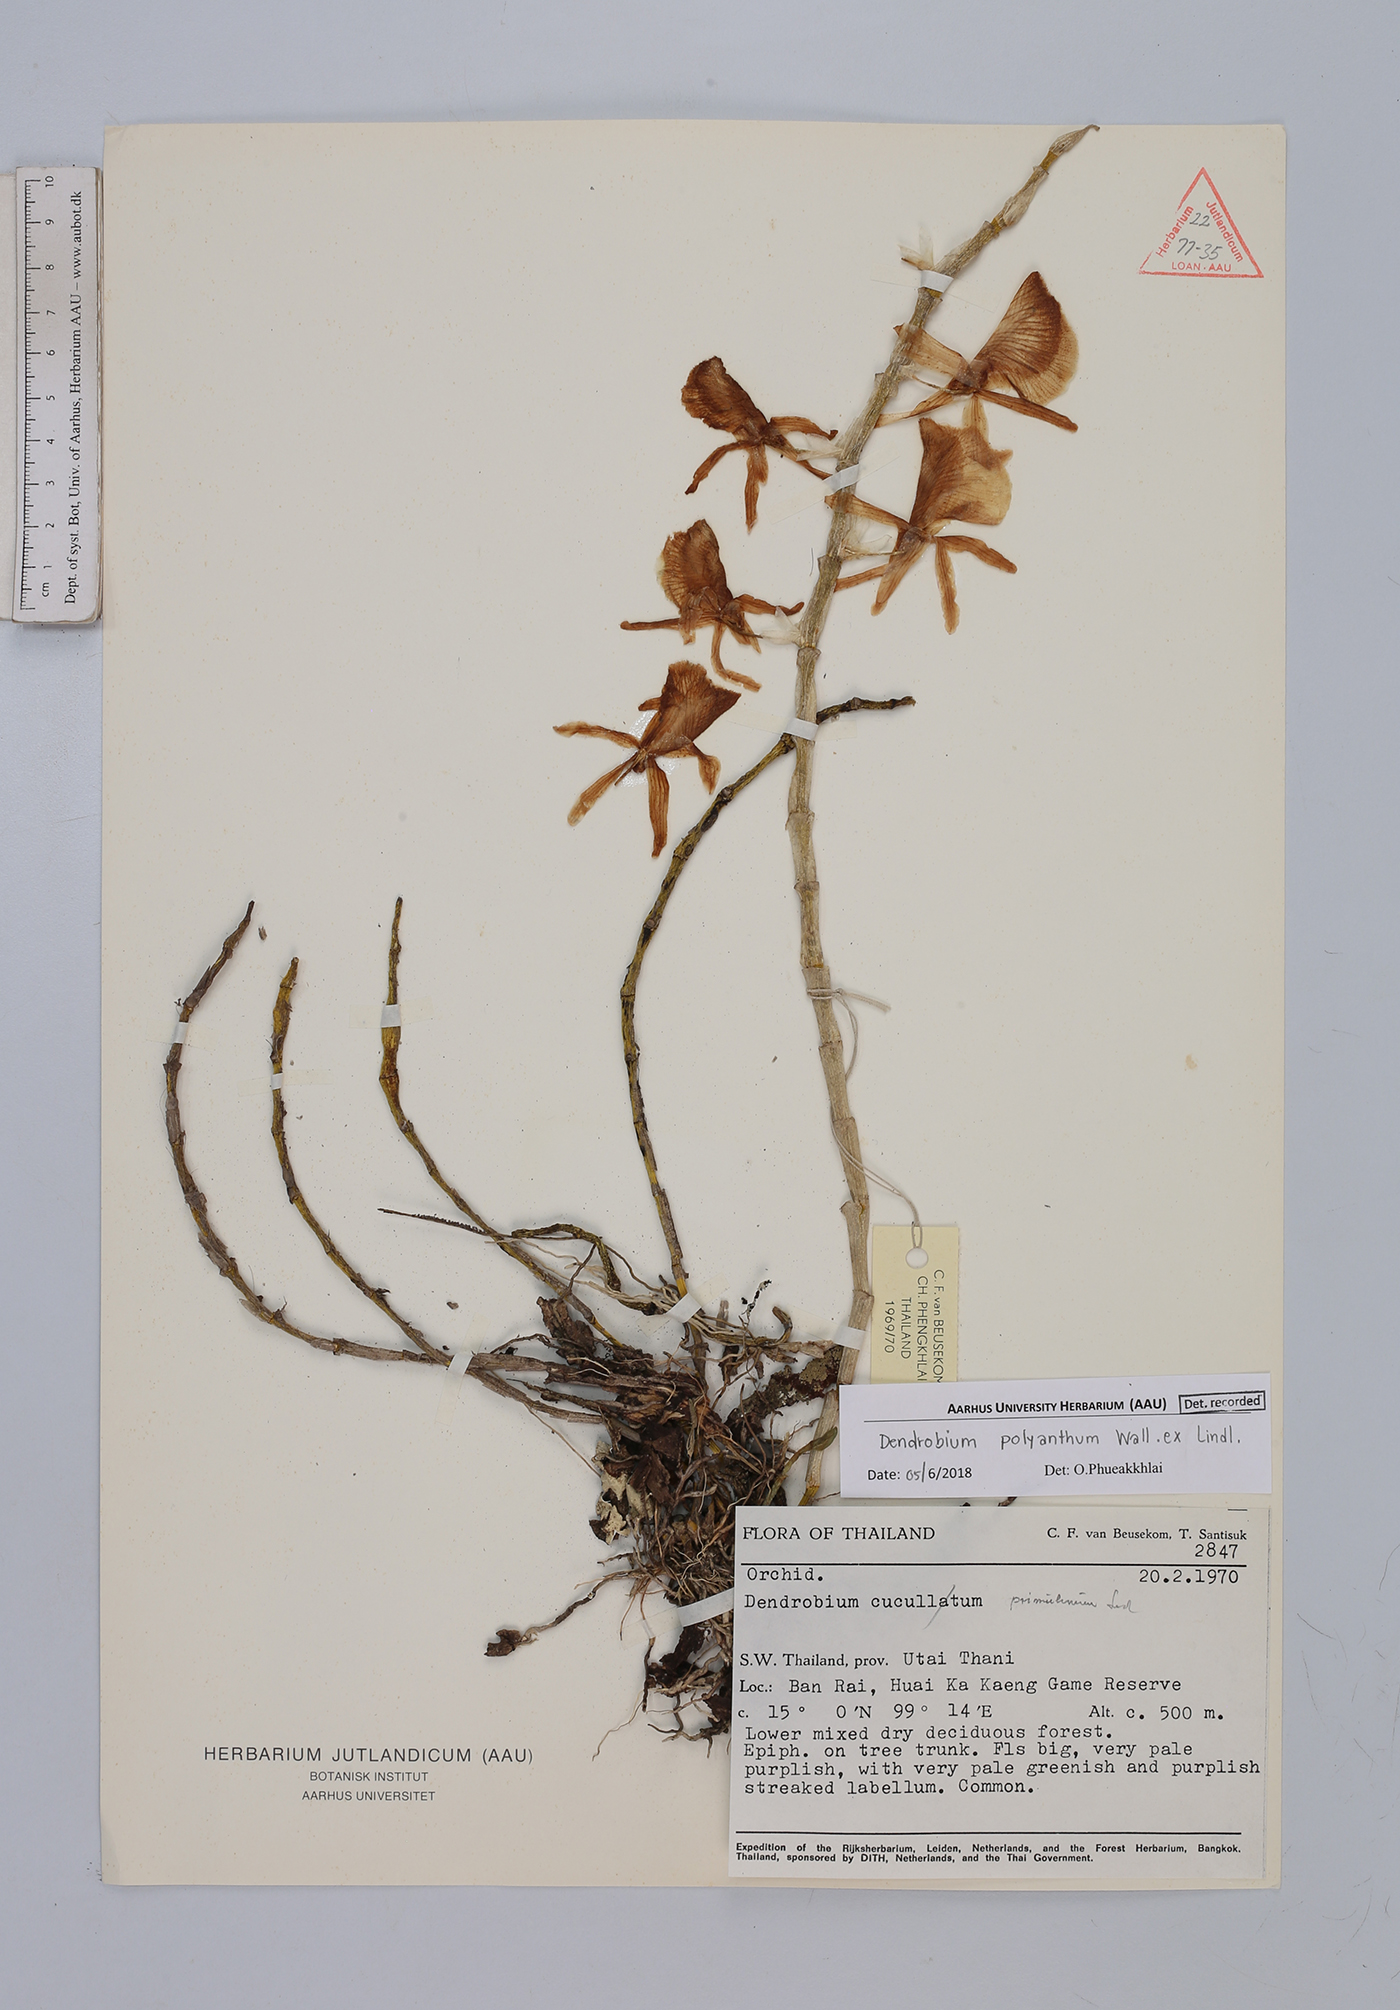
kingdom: Plantae
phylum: Tracheophyta
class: Liliopsida
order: Asparagales
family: Orchidaceae
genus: Dendrobium
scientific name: Dendrobium polyanthum
